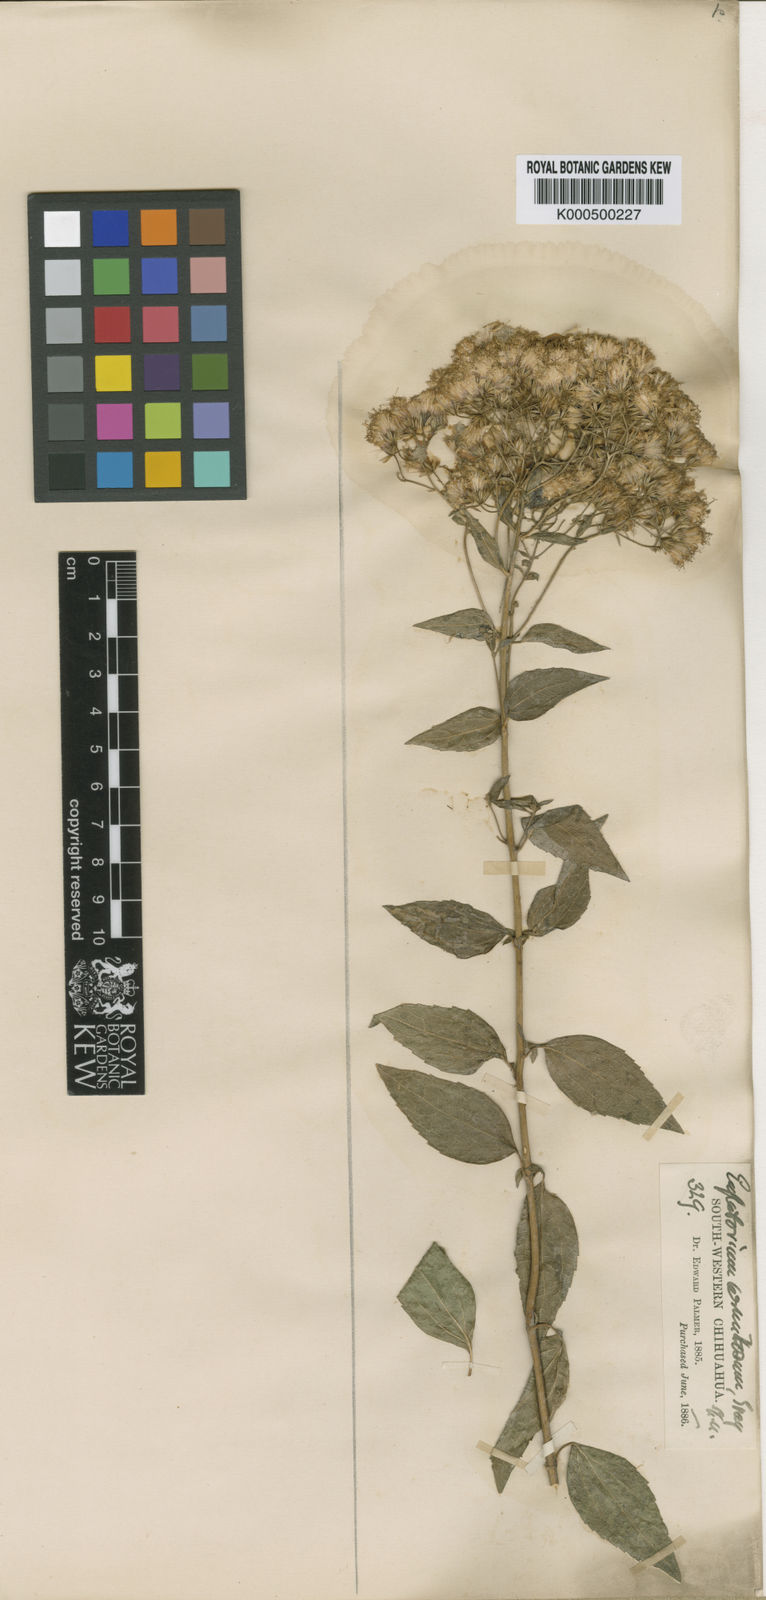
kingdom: Plantae
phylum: Tracheophyta
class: Magnoliopsida
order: Asterales
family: Asteraceae
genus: Ageratina
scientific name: Ageratina venulosa
